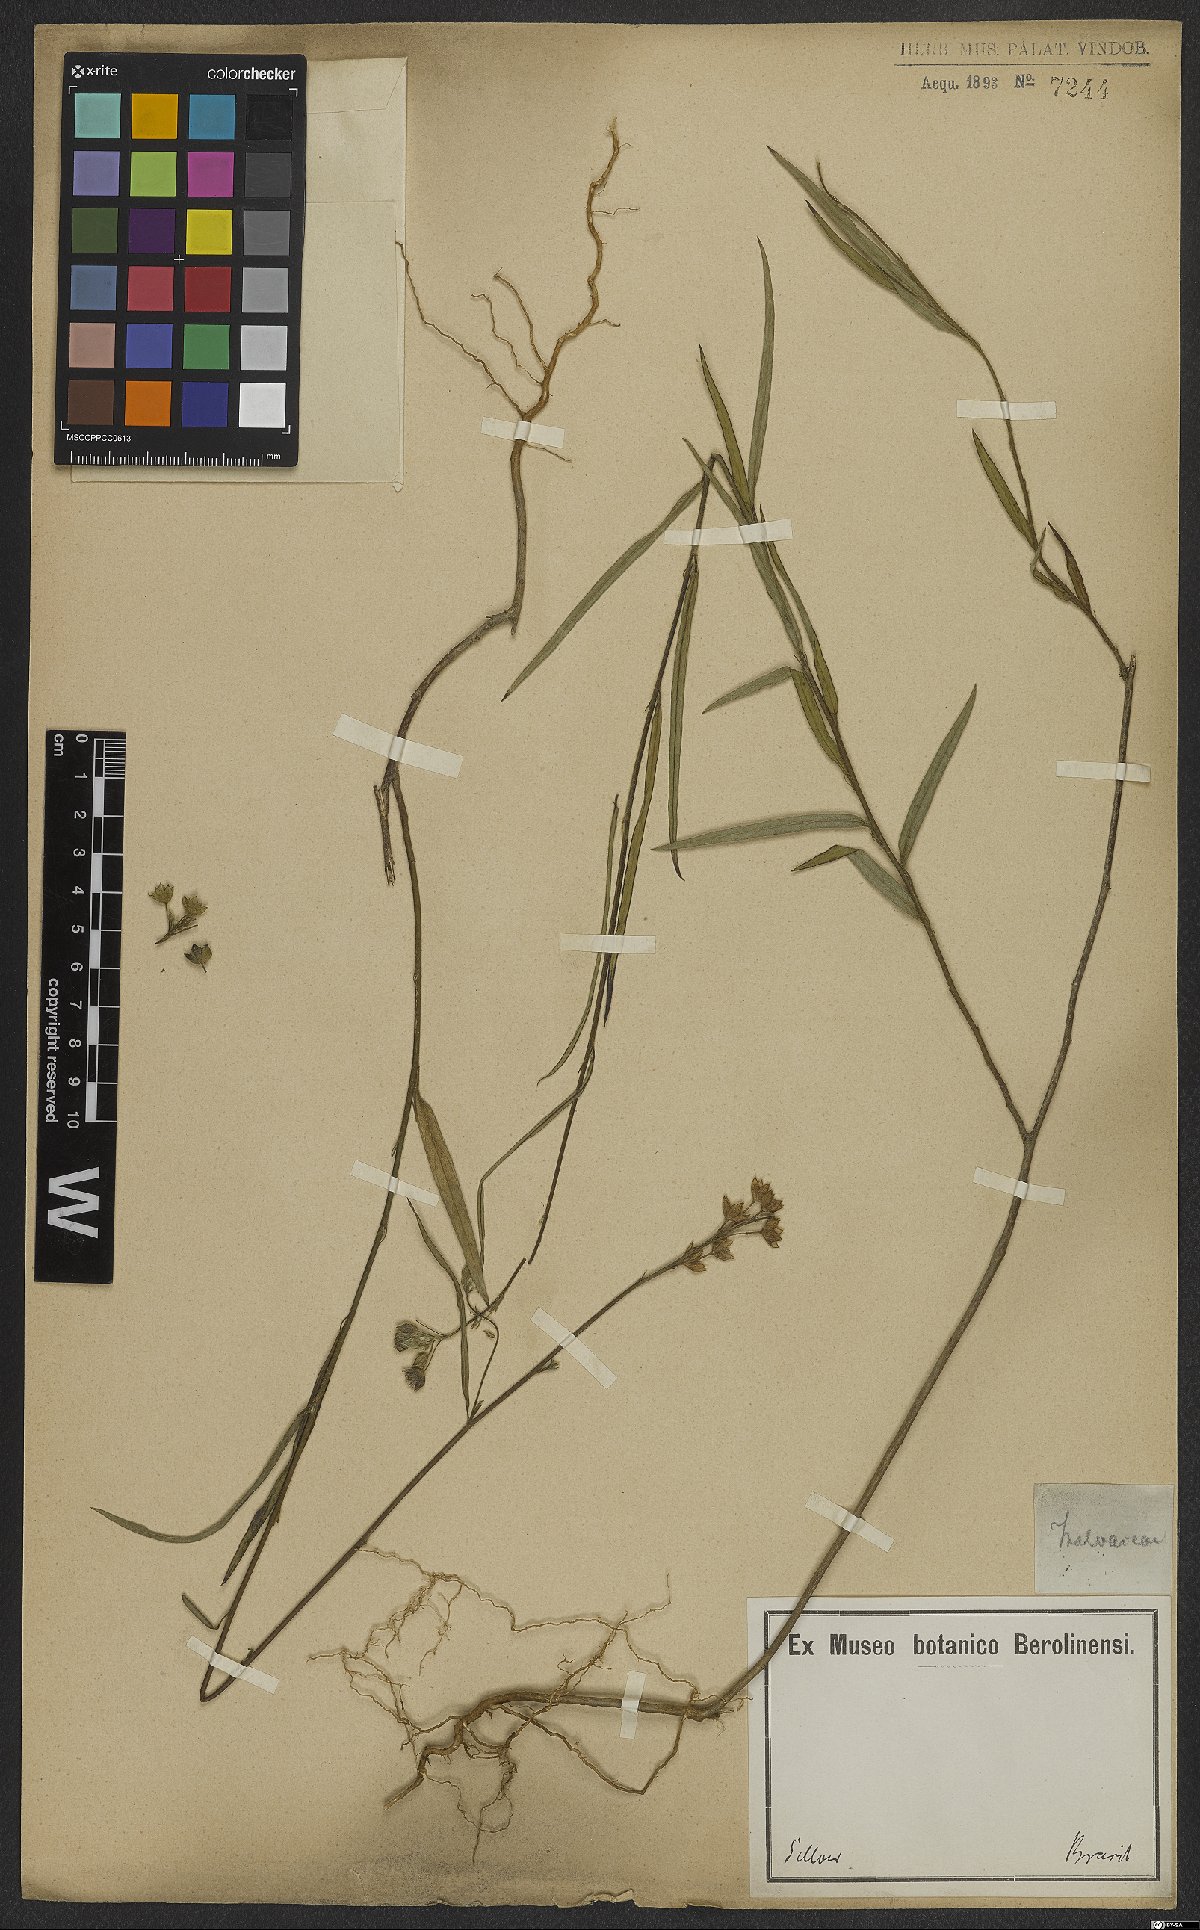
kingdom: Plantae
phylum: Tracheophyta
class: Magnoliopsida
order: Malvales
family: Malvaceae
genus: Sida
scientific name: Sida
